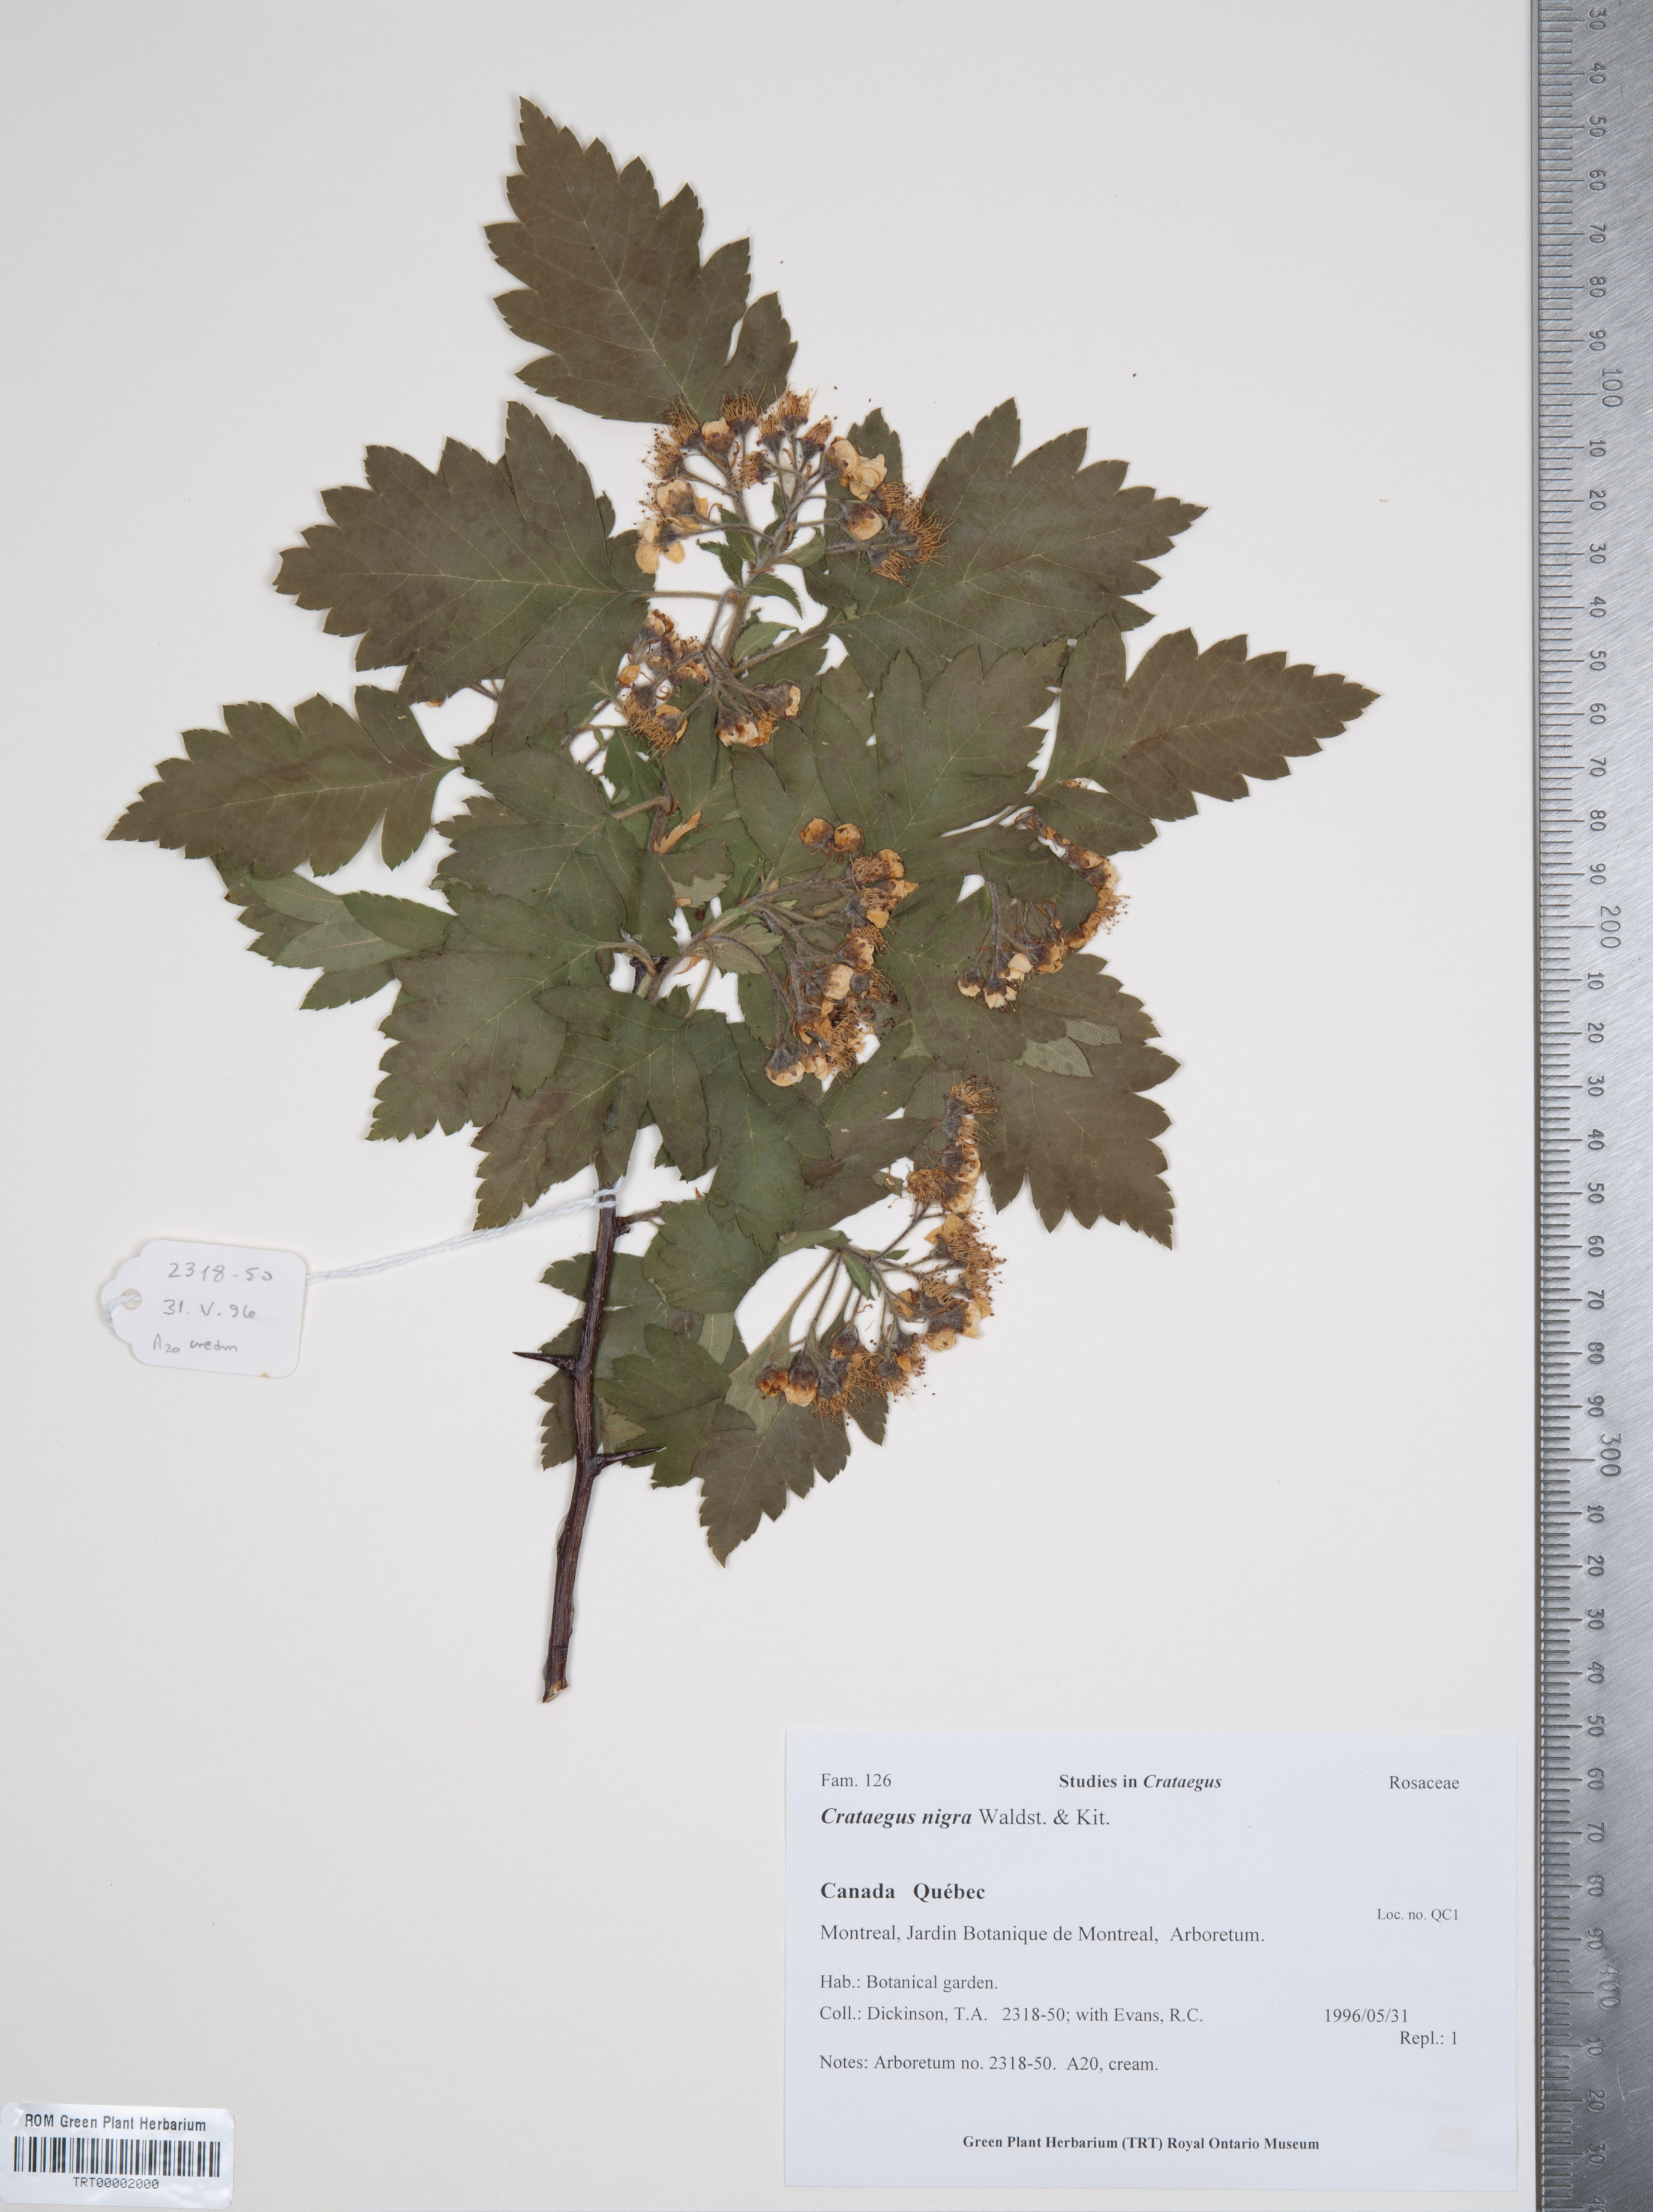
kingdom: Plantae
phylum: Tracheophyta
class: Magnoliopsida
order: Rosales
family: Rosaceae
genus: Crataegus
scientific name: Crataegus nigra
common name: Hungarian thorn
